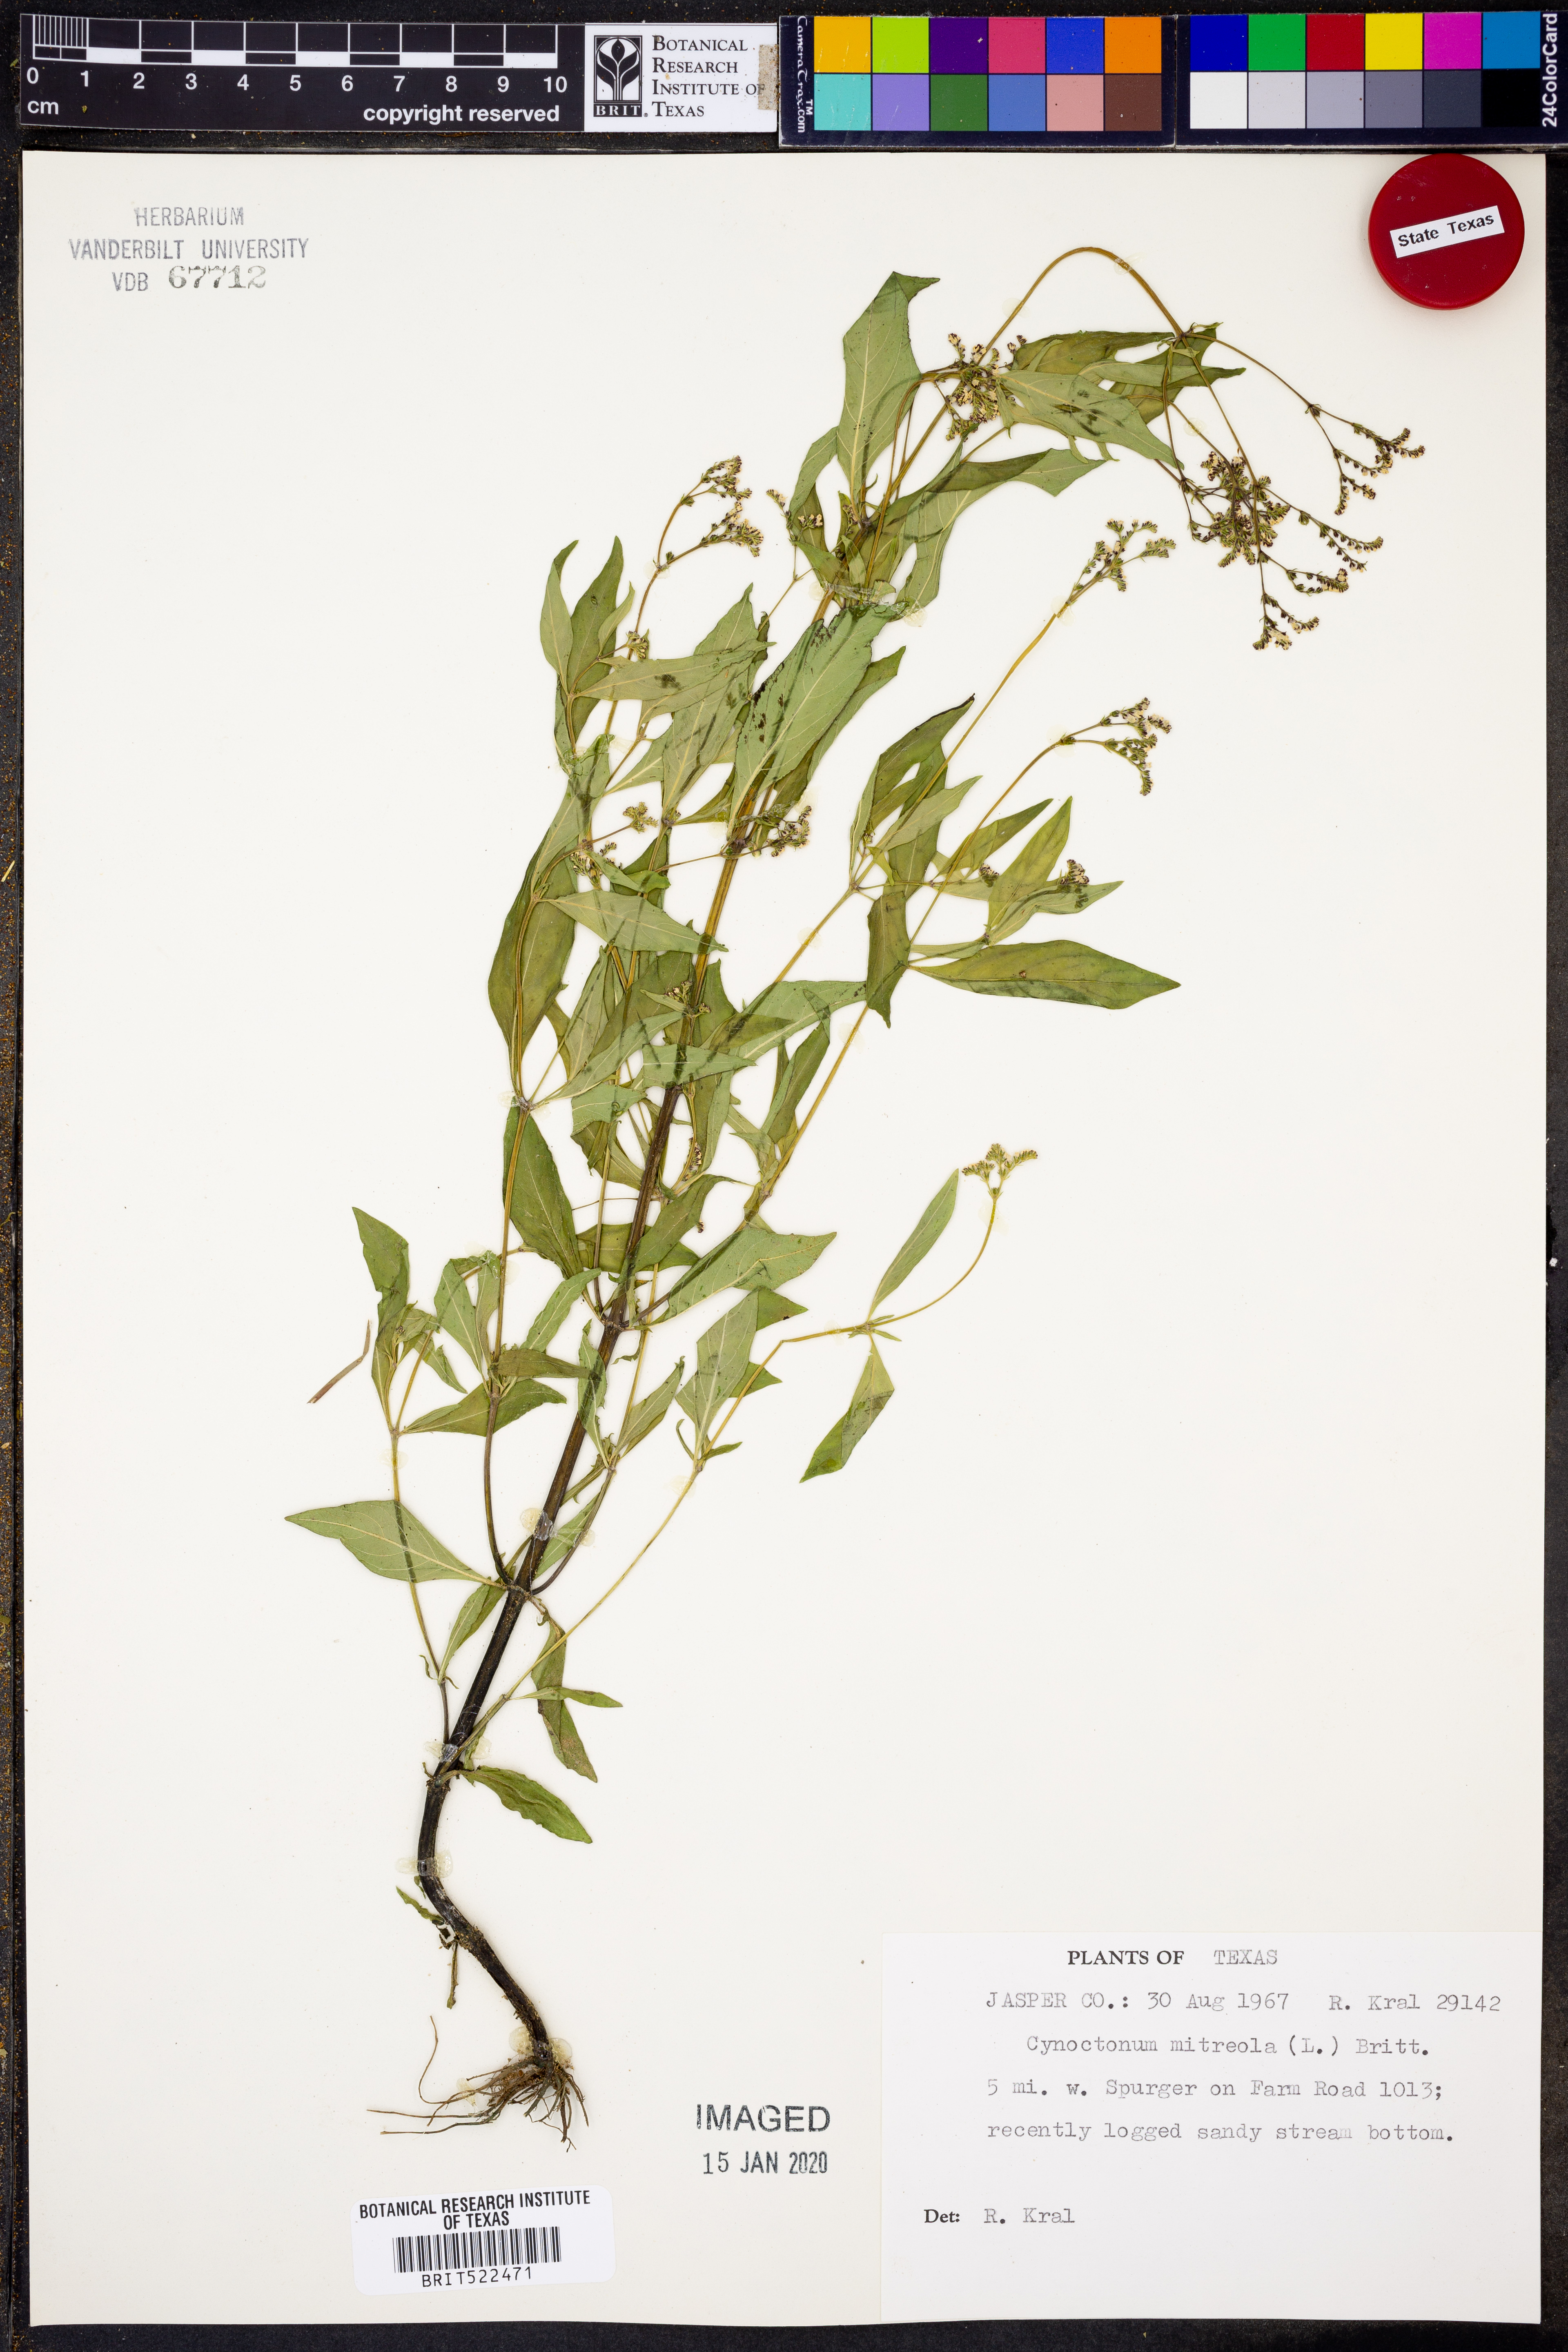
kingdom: Plantae
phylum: Tracheophyta
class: Magnoliopsida
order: Gentianales
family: Loganiaceae
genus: Mitreola
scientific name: Mitreola petiolata
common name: Lax hornpod
